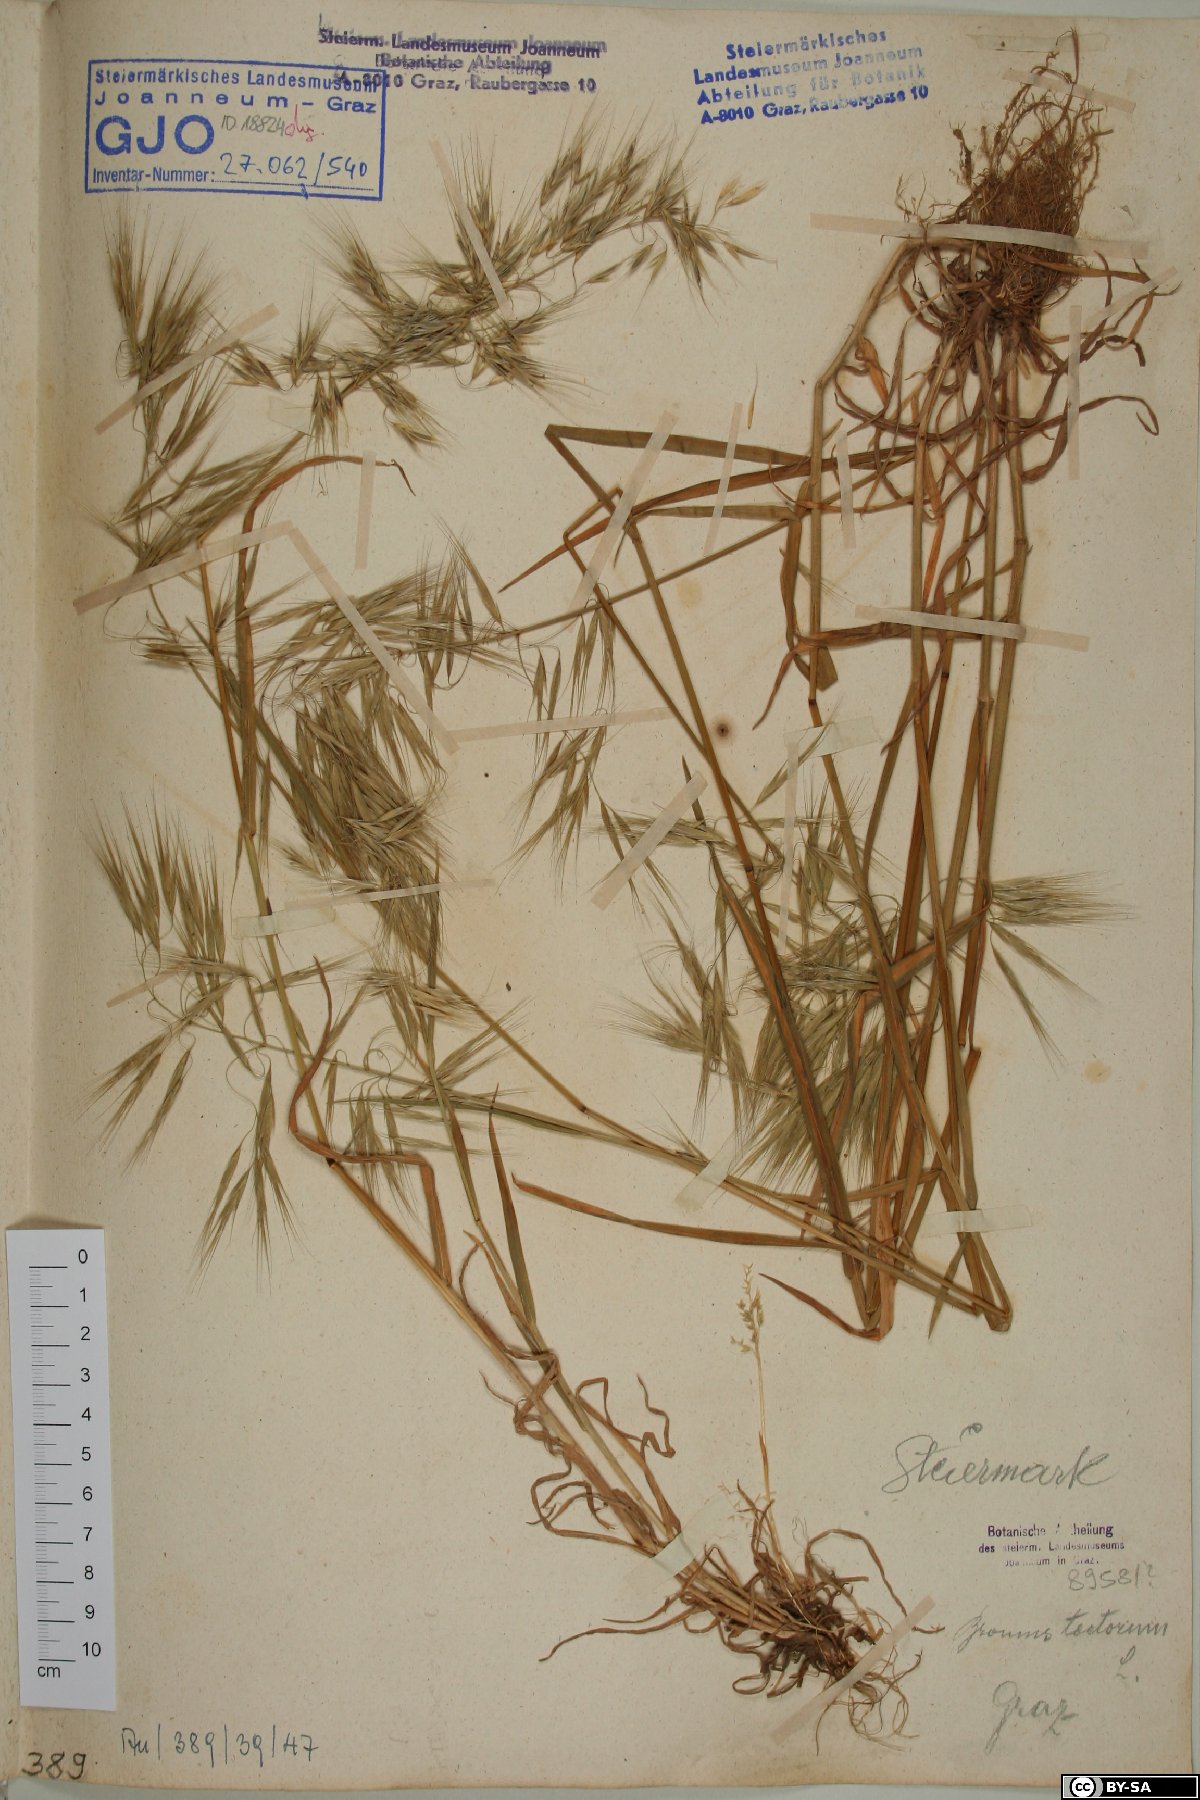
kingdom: Plantae
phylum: Tracheophyta
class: Liliopsida
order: Poales
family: Poaceae
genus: Bromus
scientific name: Bromus tectorum
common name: Cheatgrass
